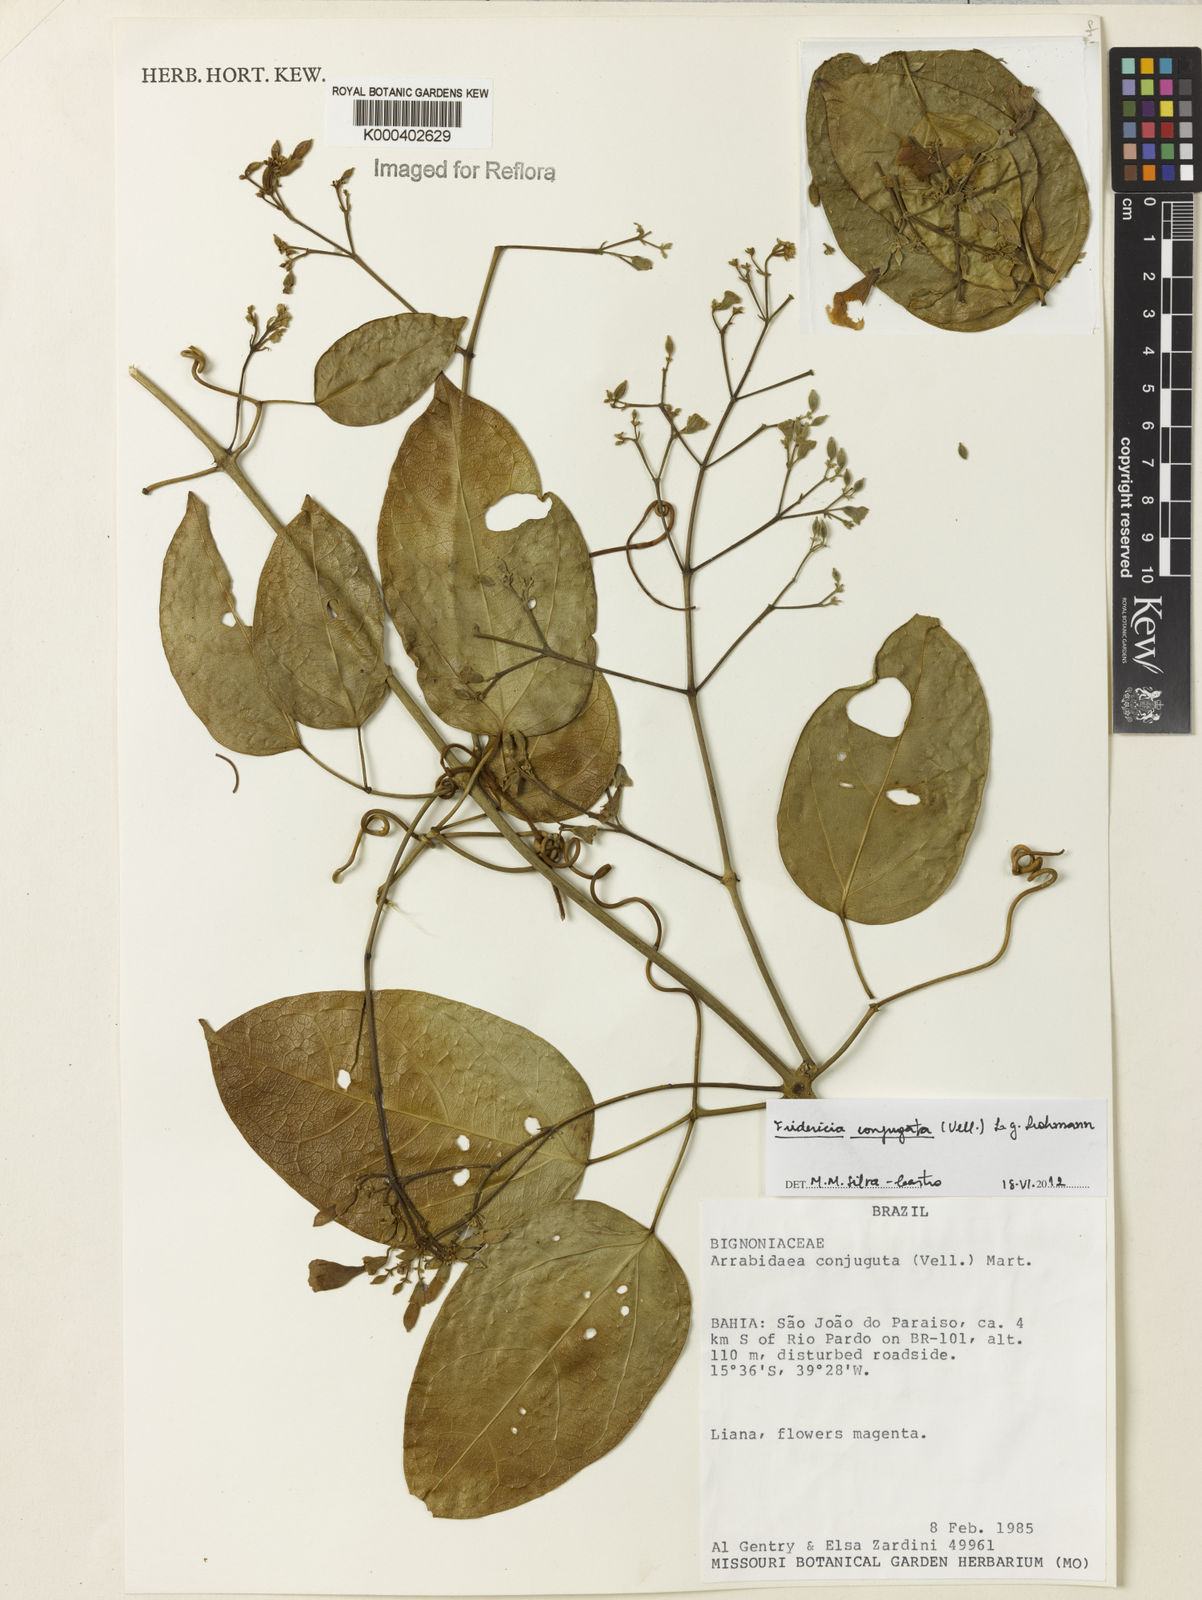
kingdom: Plantae
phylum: Tracheophyta
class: Magnoliopsida
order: Lamiales
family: Bignoniaceae
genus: Fridericia
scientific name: Fridericia conjugata
